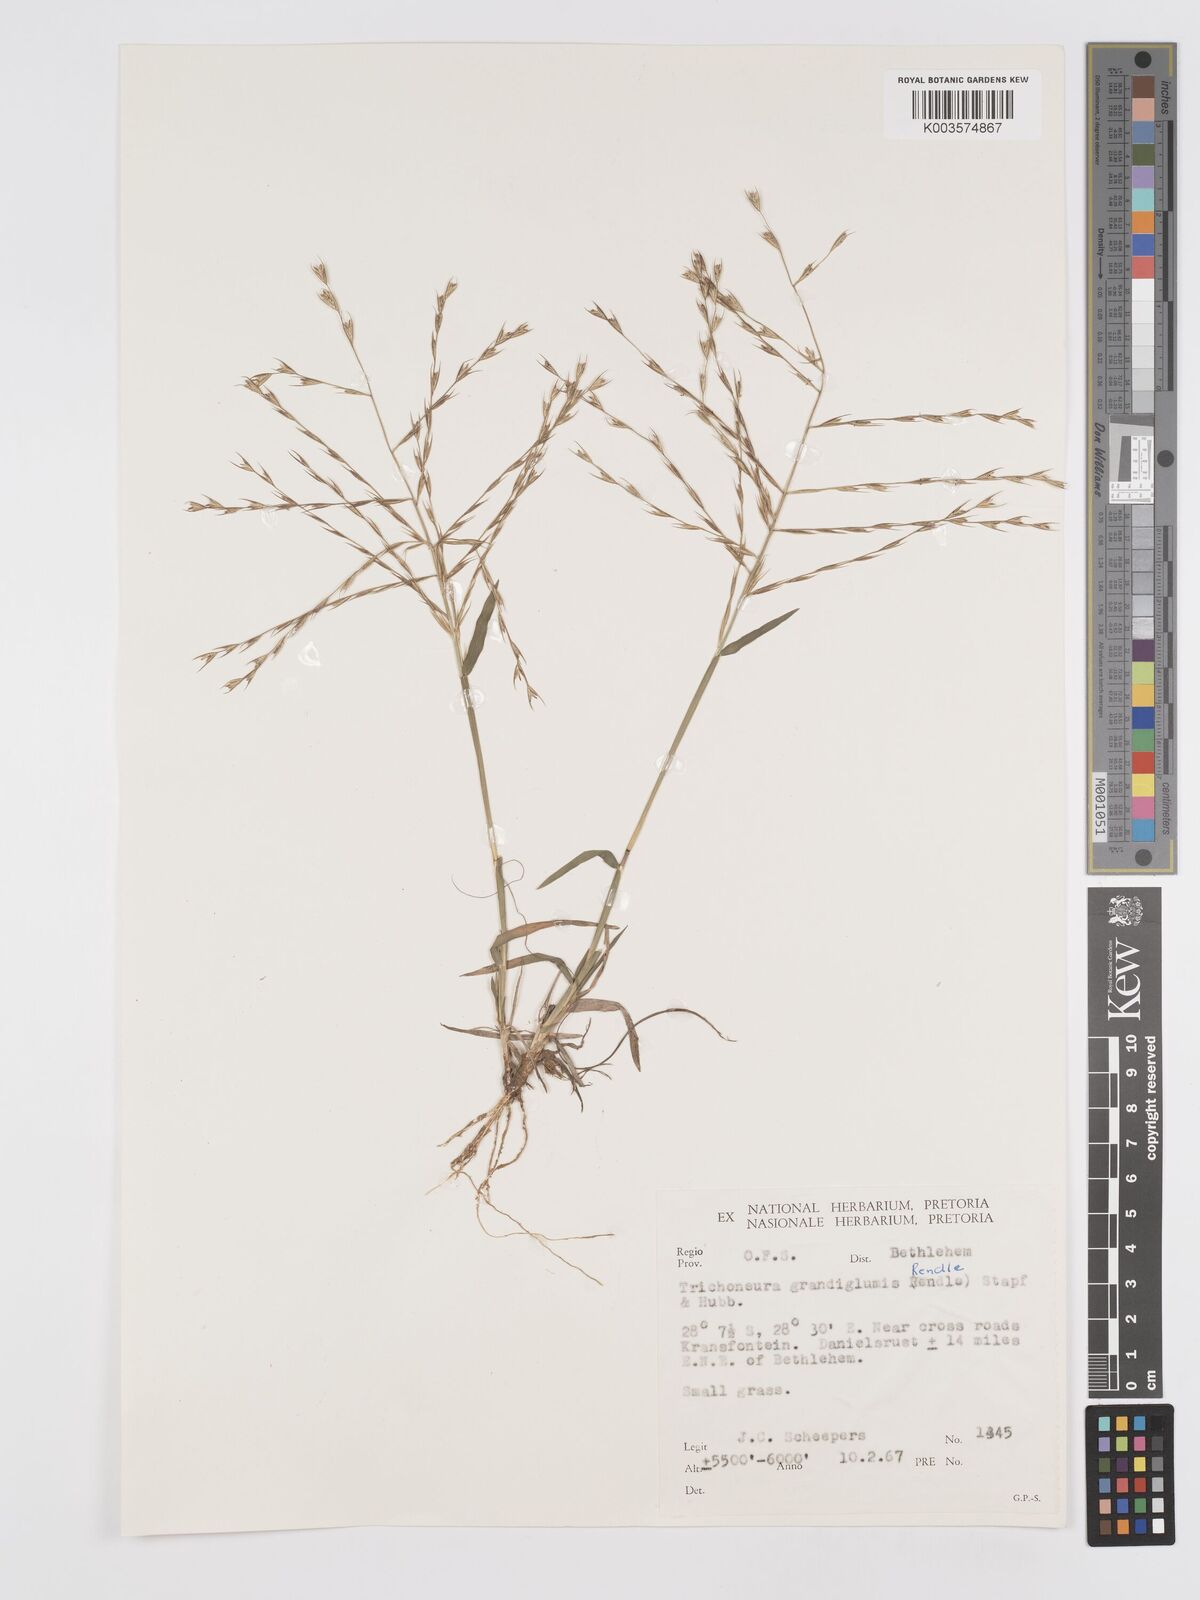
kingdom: Plantae
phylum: Tracheophyta
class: Liliopsida
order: Poales
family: Poaceae
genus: Trichoneura
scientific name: Trichoneura grandiglumis
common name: Rolling grass
